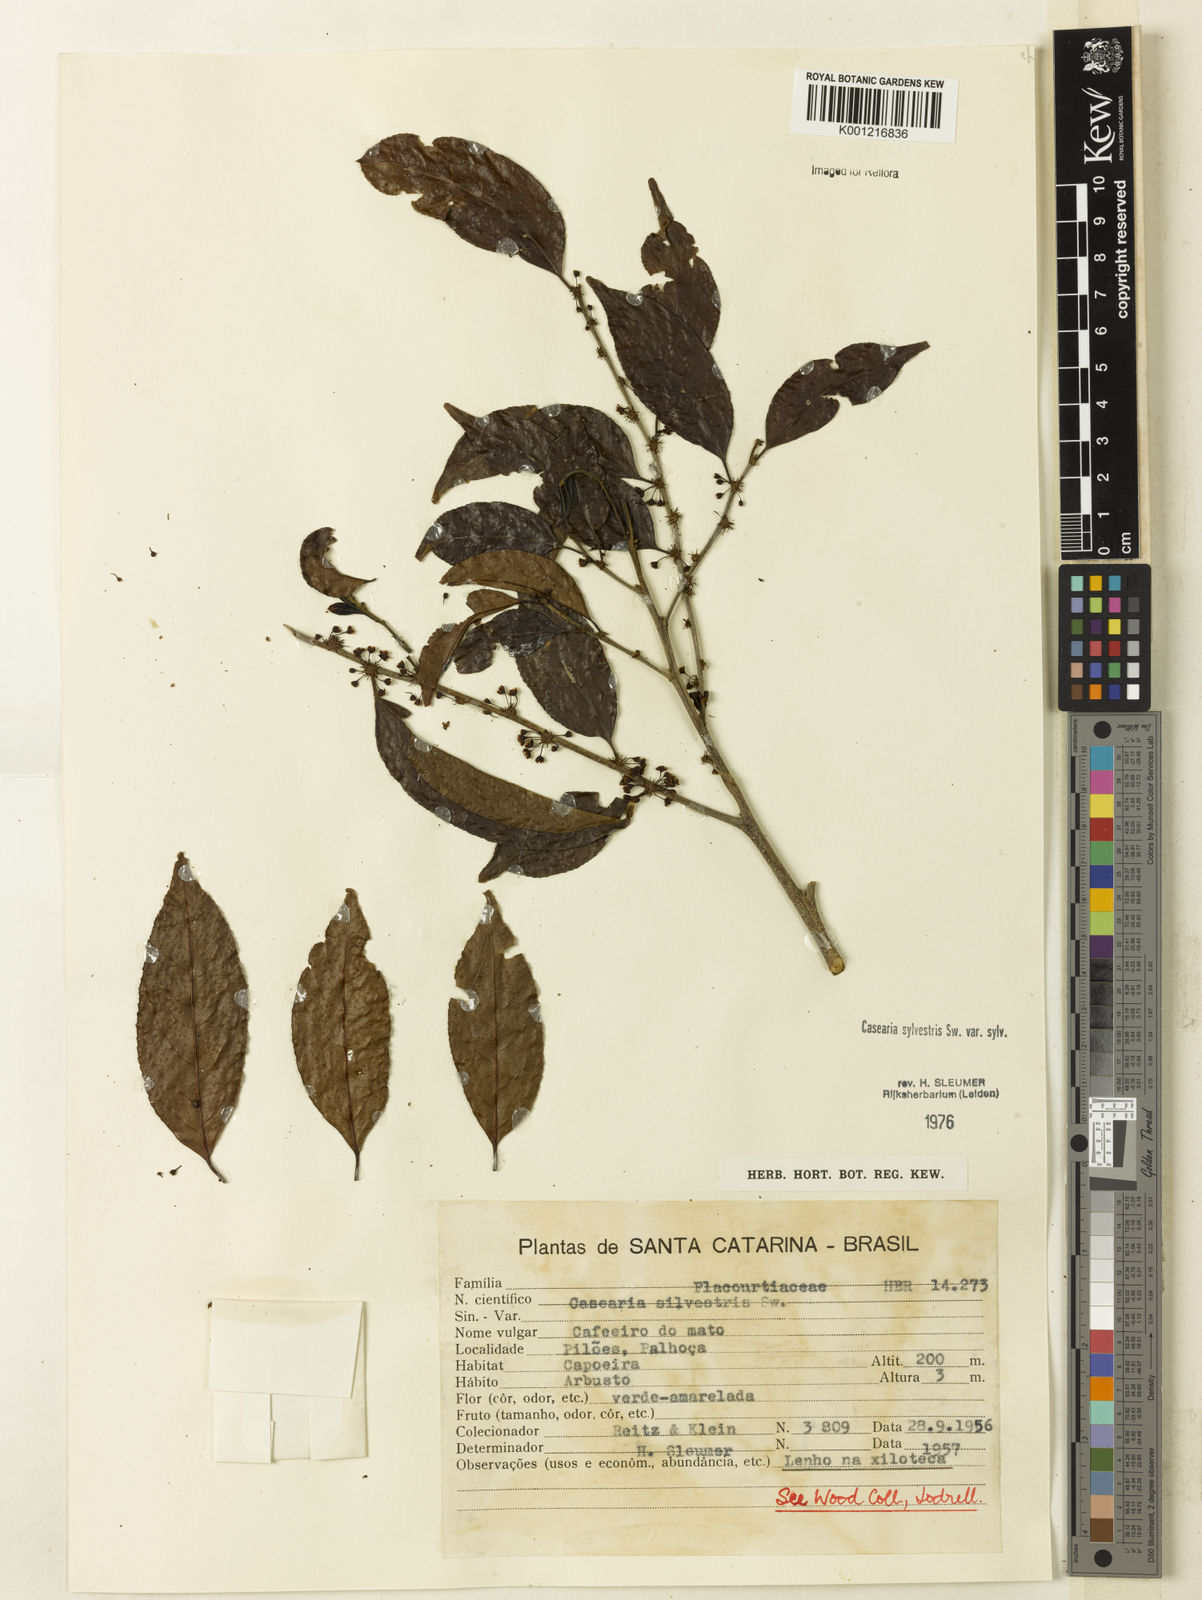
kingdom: Plantae
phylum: Tracheophyta
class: Magnoliopsida
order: Malpighiales
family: Salicaceae
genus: Casearia
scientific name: Casearia sylvestris
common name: Wild sage
